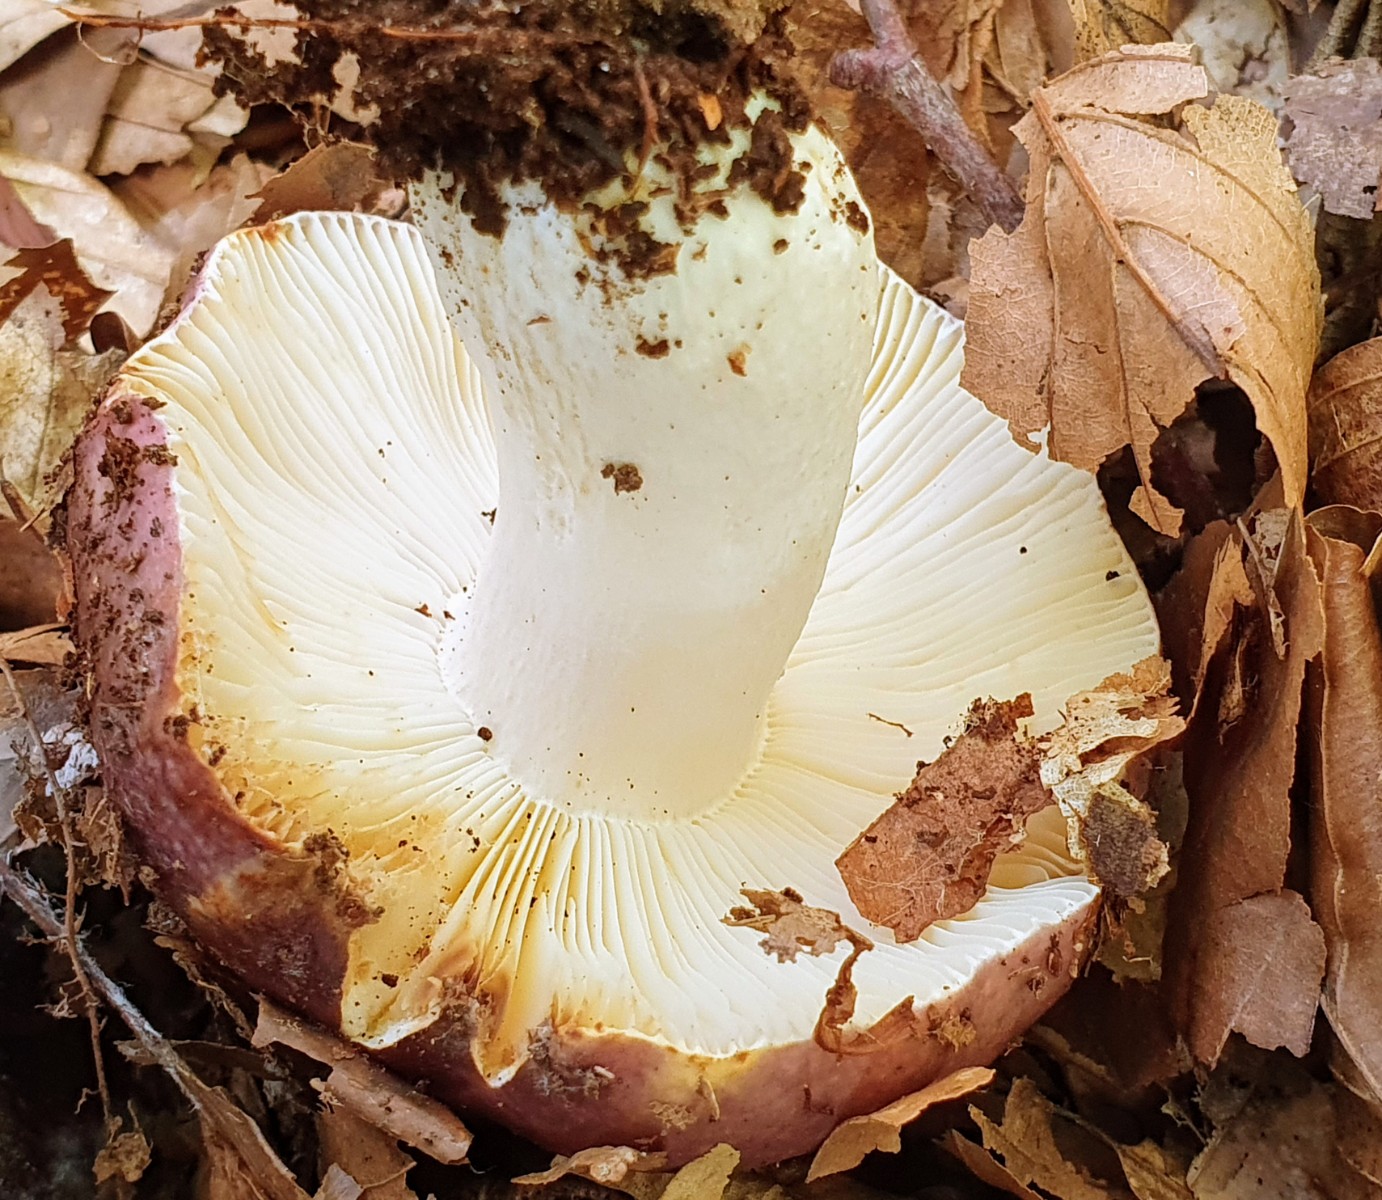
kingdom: Fungi
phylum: Basidiomycota
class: Agaricomycetes
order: Russulales
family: Russulaceae
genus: Russula
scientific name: Russula atropurpurea
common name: purpurbroget skørhat
